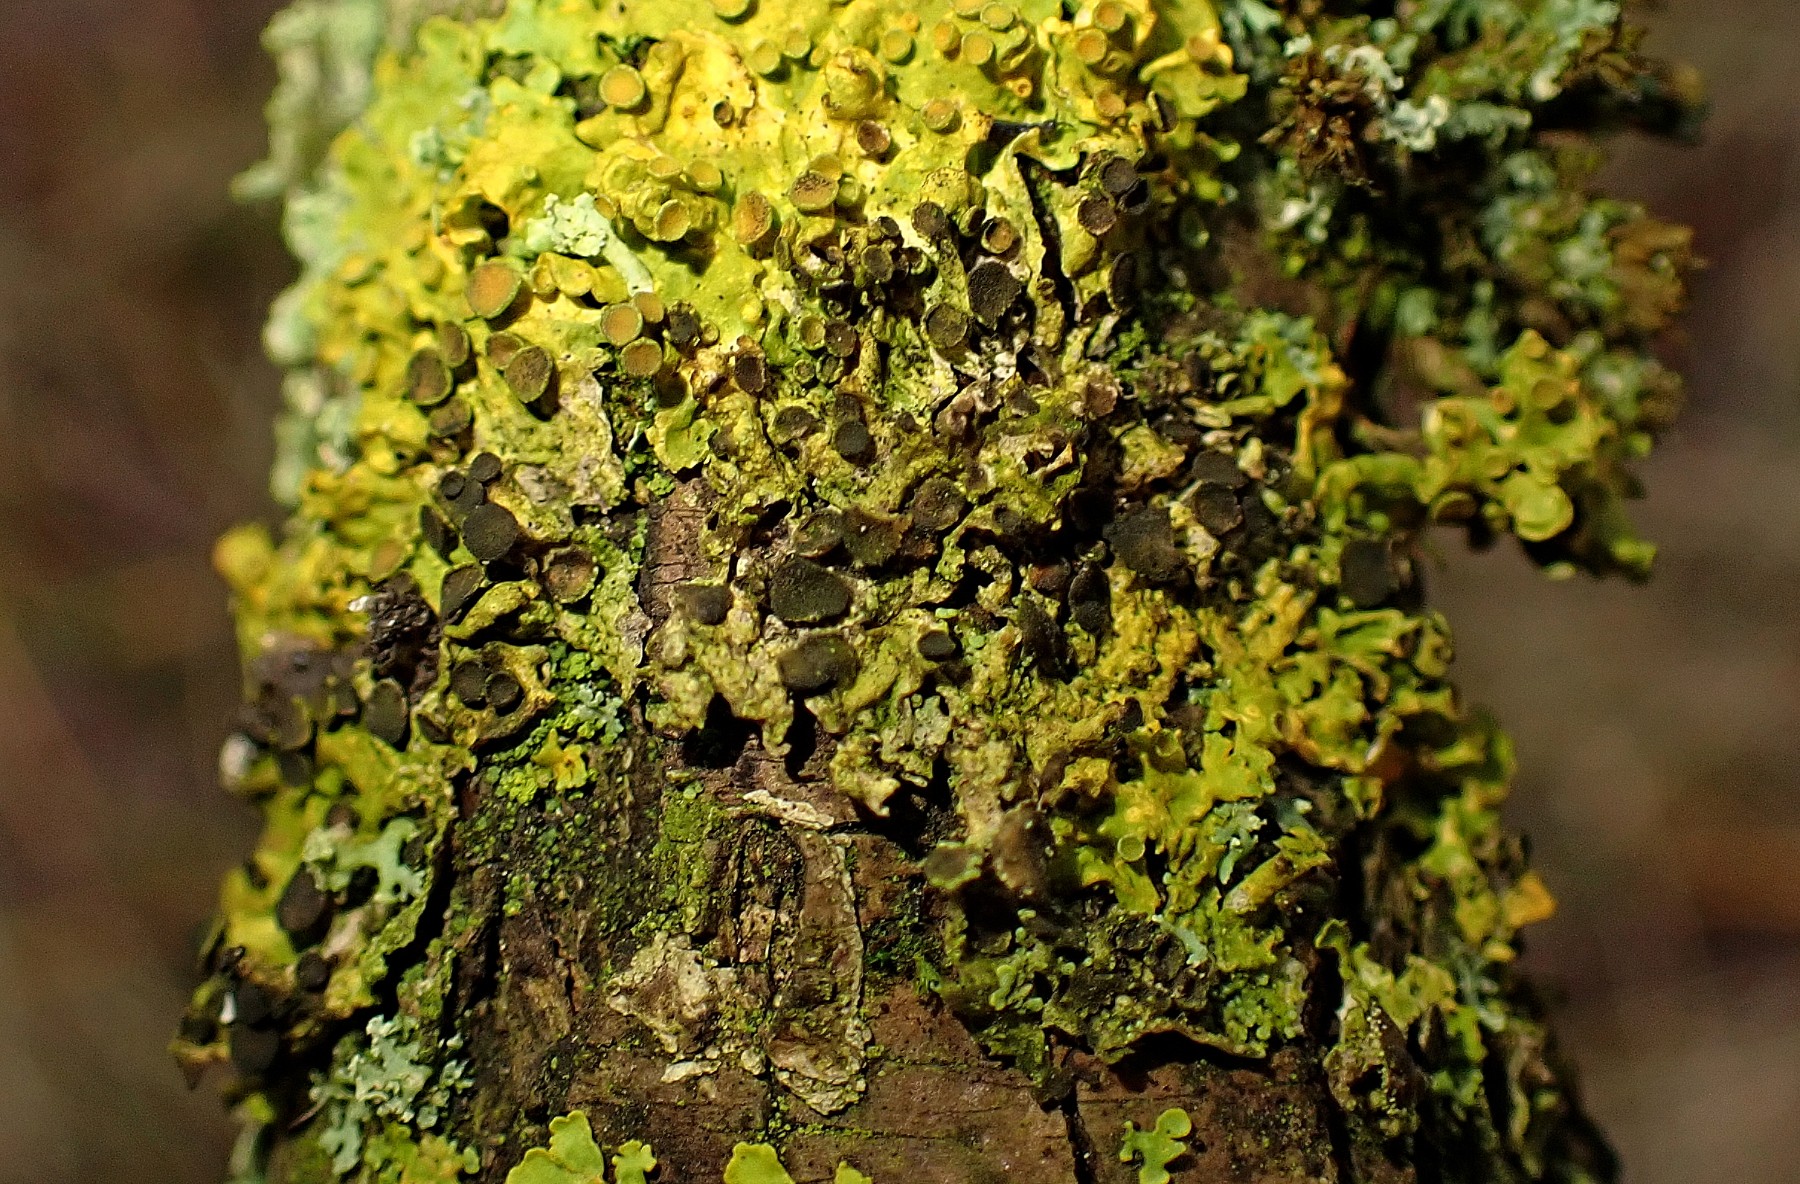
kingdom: Fungi
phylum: Ascomycota
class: Dothideomycetes
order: Mycosphaerellales
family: Teratosphaeriaceae
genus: Xanthoriicola
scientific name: Xanthoriicola physciae
